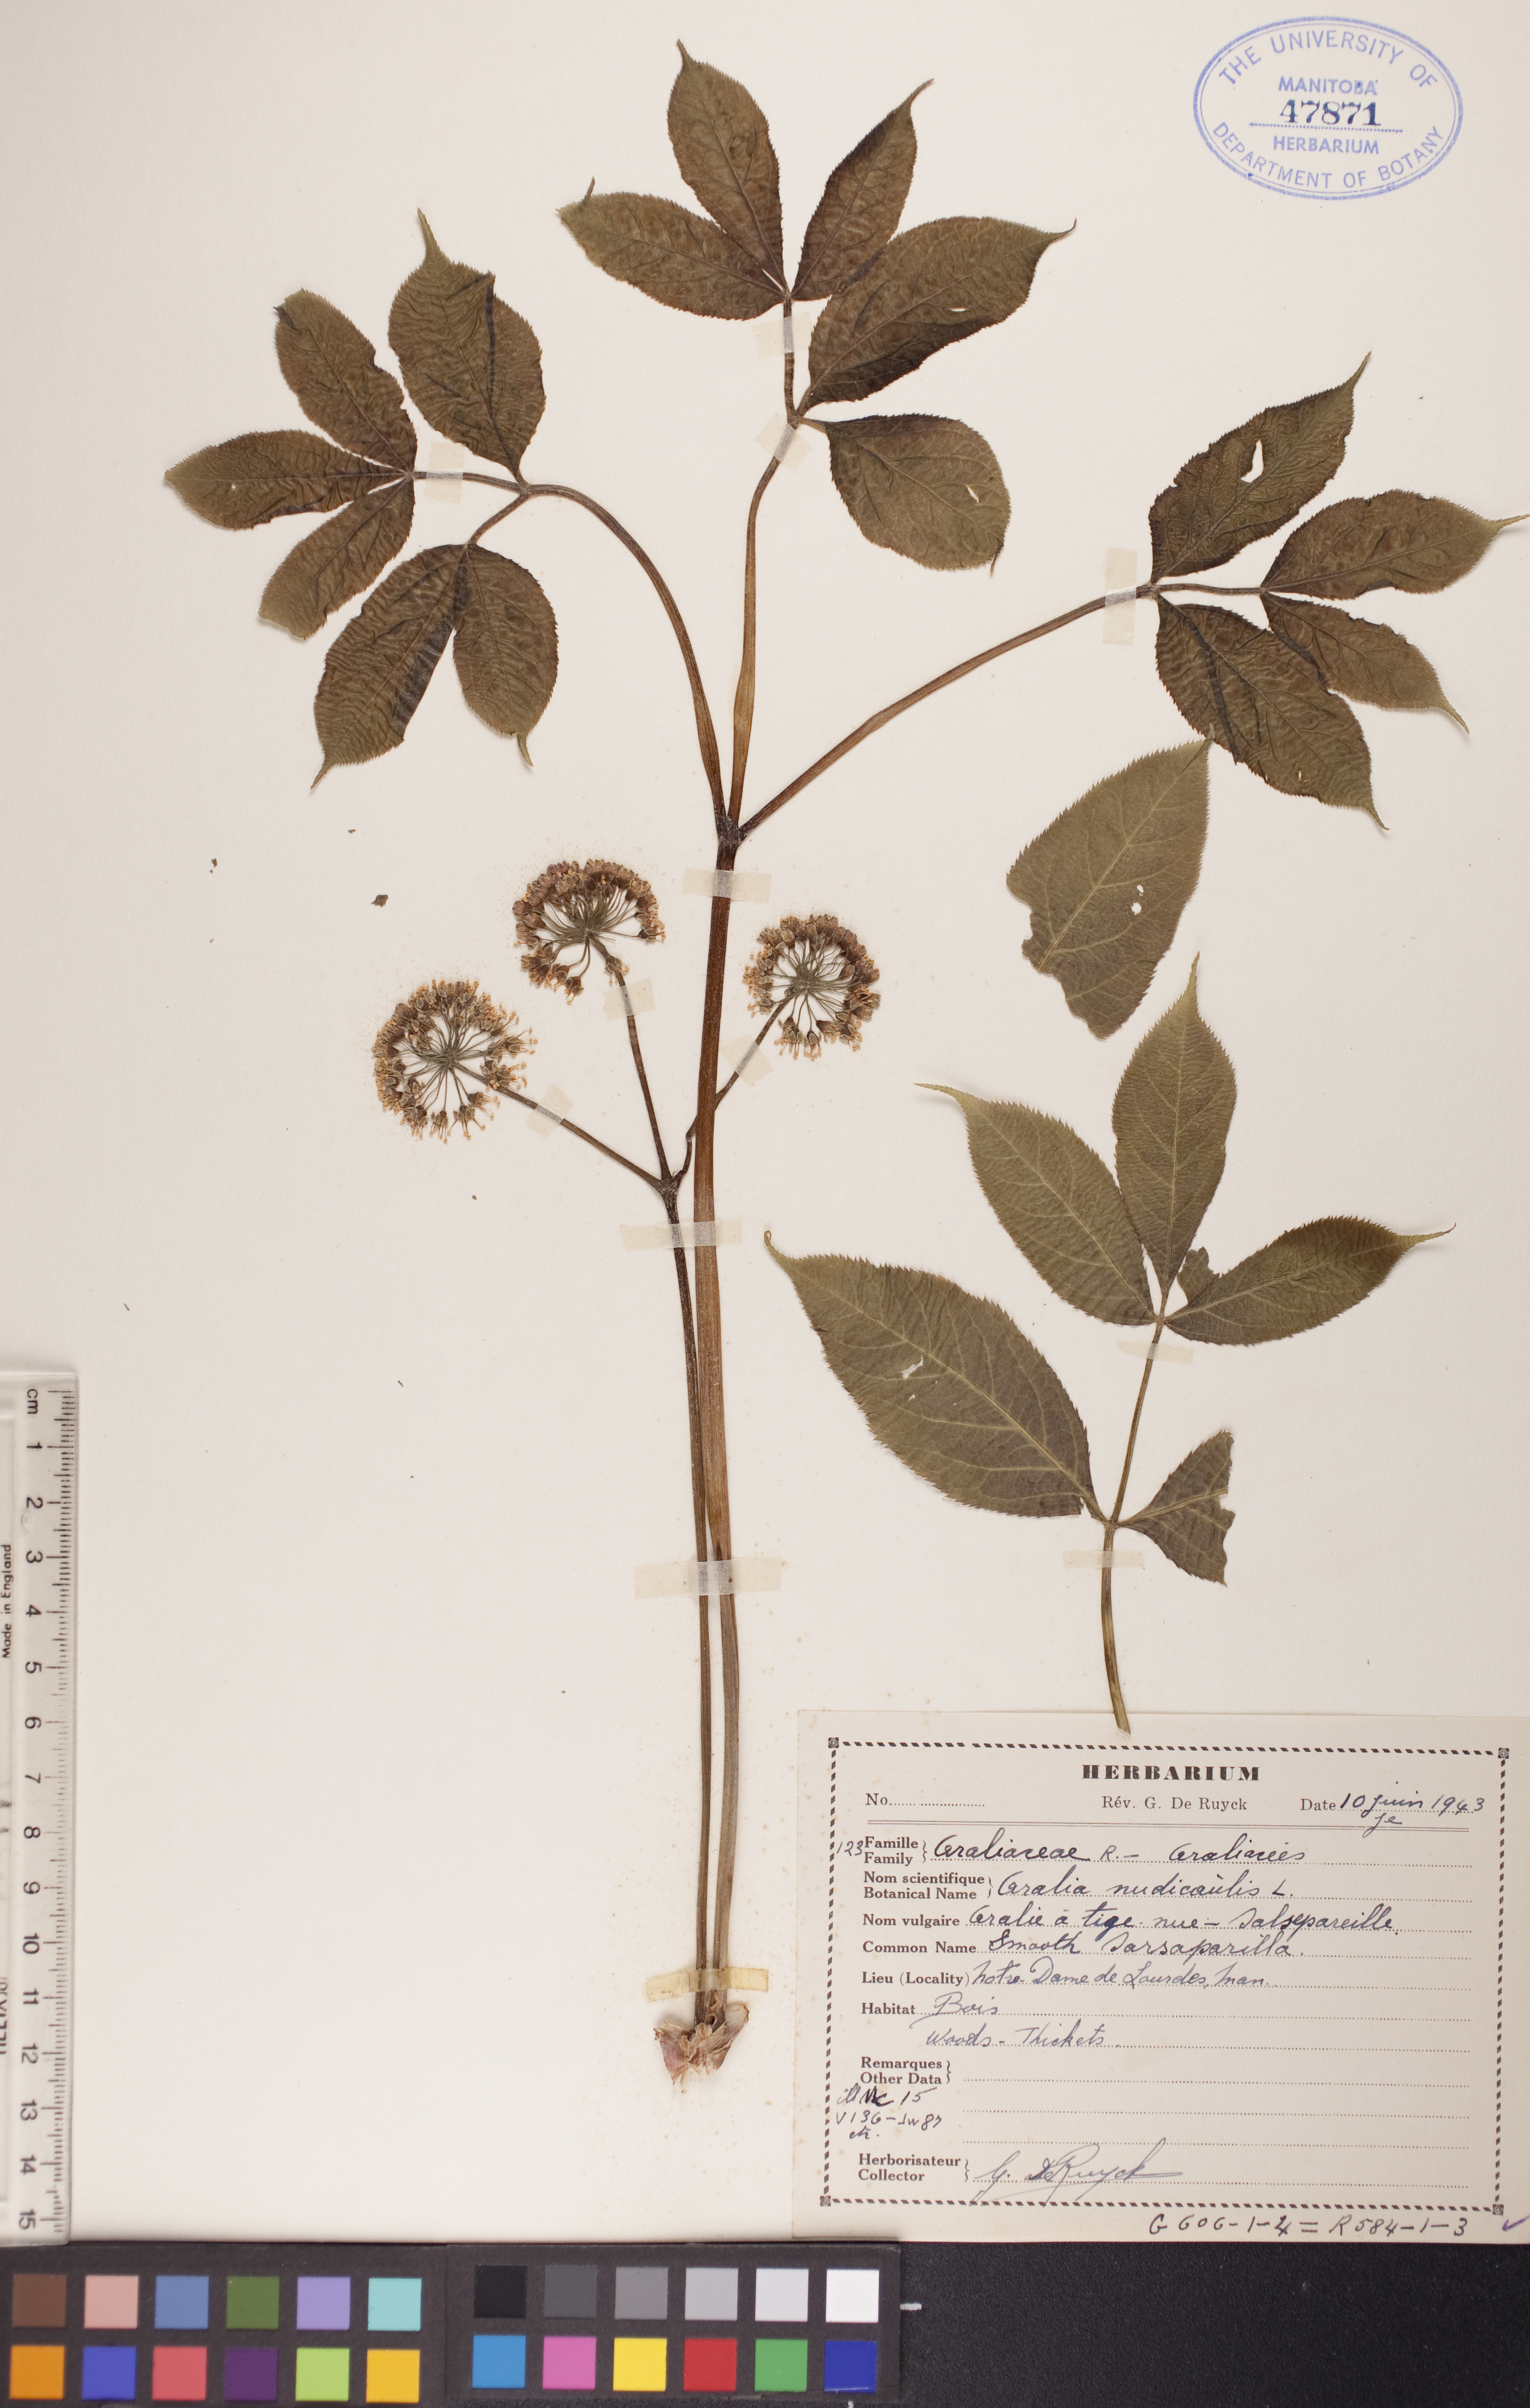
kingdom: Plantae
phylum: Tracheophyta
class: Magnoliopsida
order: Apiales
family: Araliaceae
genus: Aralia
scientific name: Aralia nudicaulis
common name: Wild sarsaparilla
